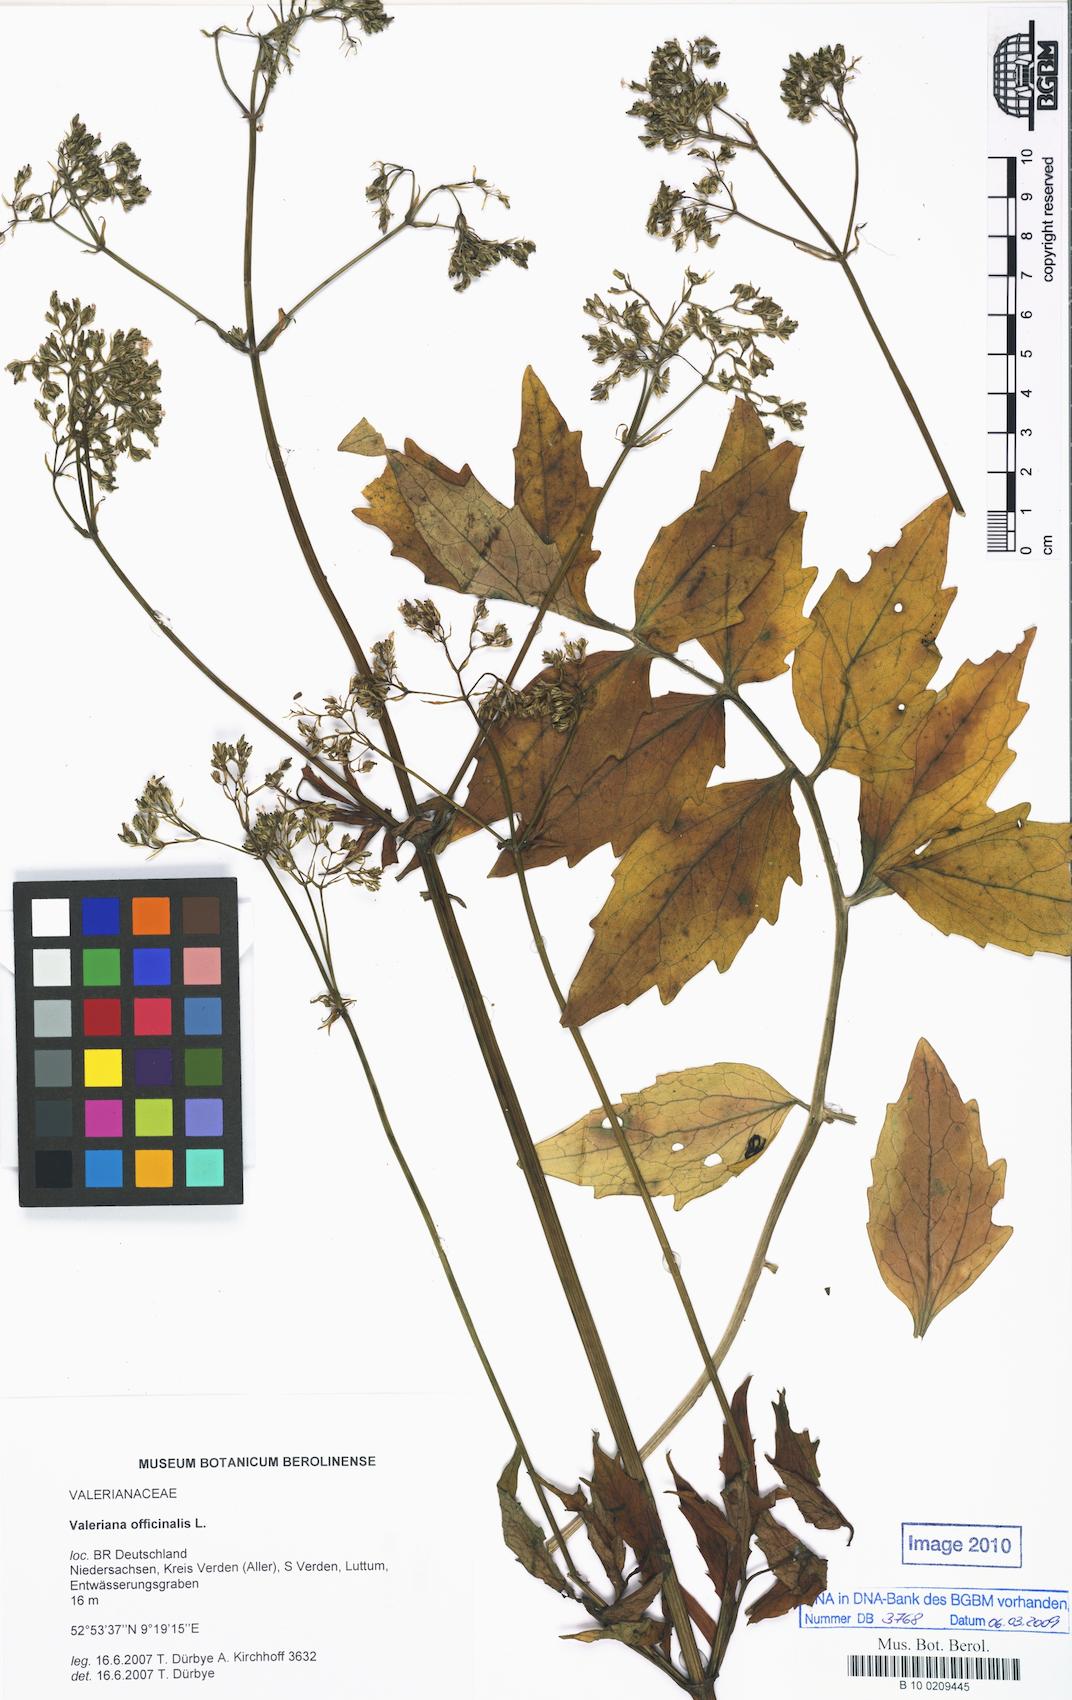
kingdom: Plantae
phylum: Tracheophyta
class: Magnoliopsida
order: Dipsacales
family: Caprifoliaceae
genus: Valeriana
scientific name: Valeriana excelsa
